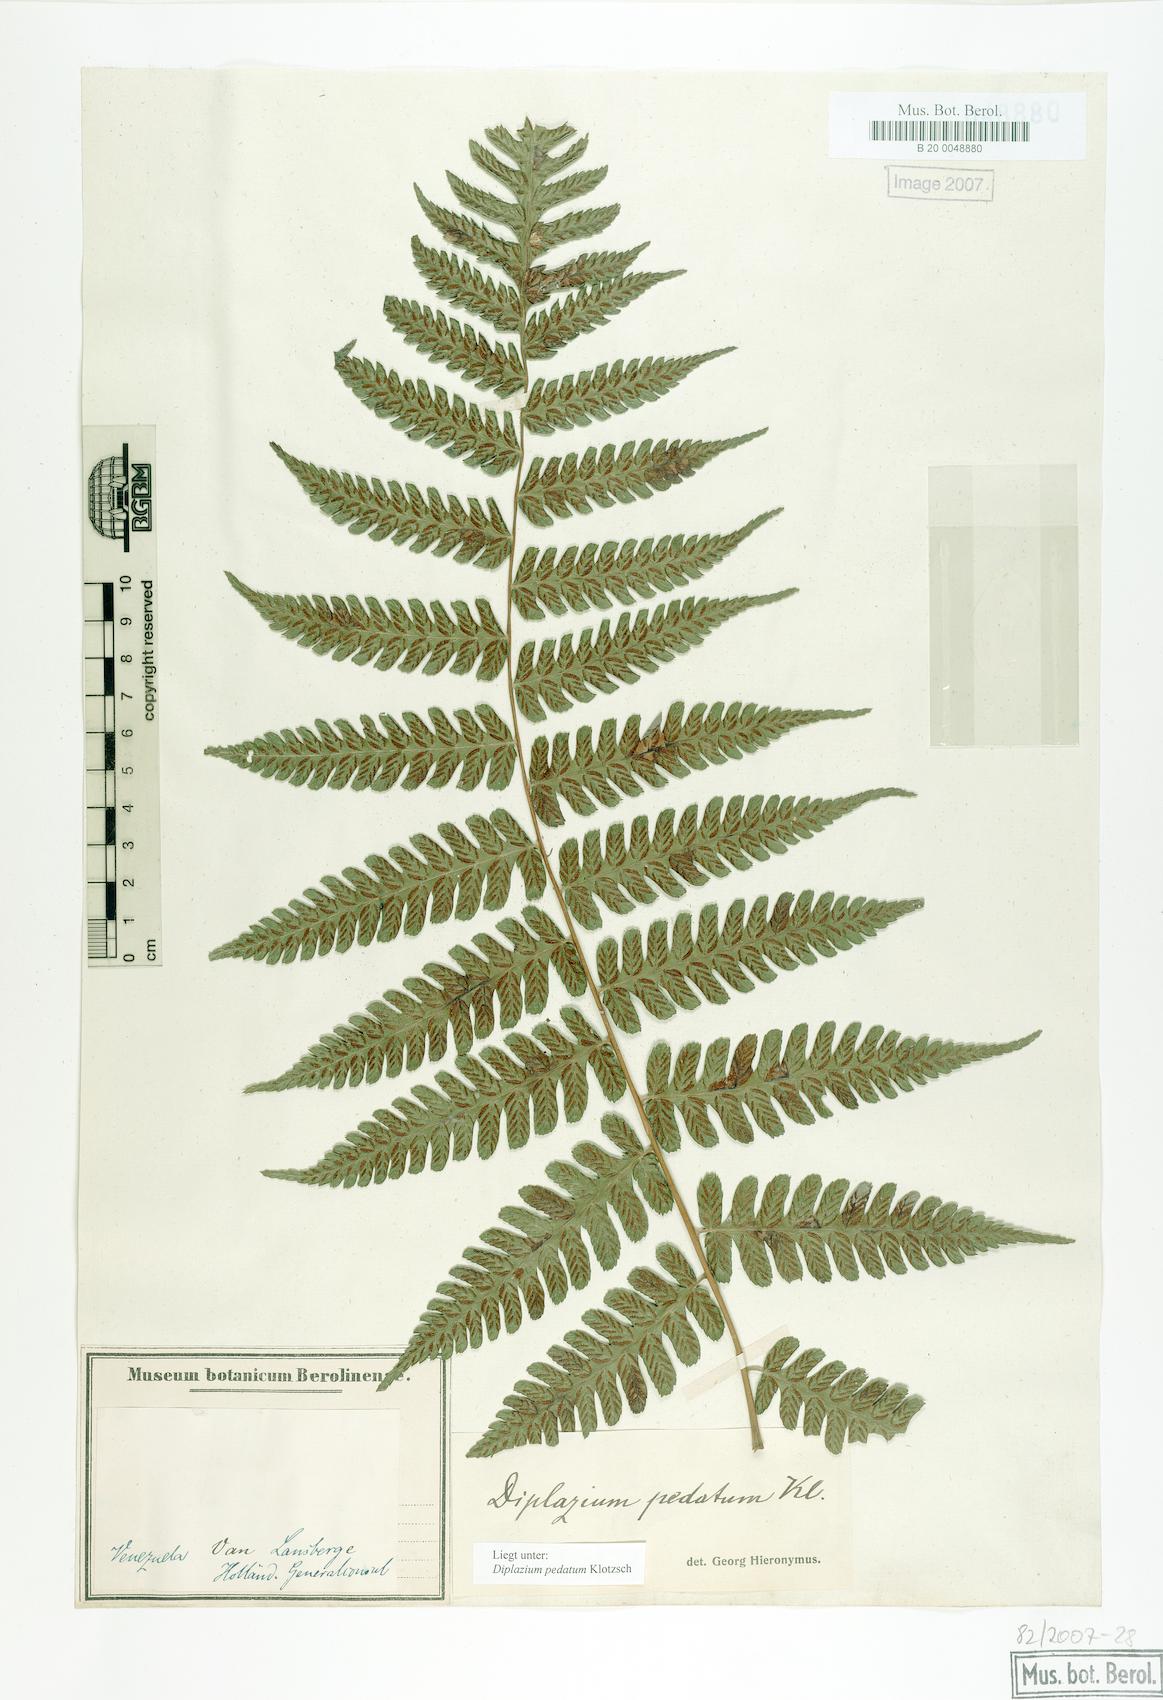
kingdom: Plantae
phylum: Tracheophyta
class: Polypodiopsida
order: Polypodiales
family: Athyriaceae
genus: Diplazium
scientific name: Diplazium pedatum
